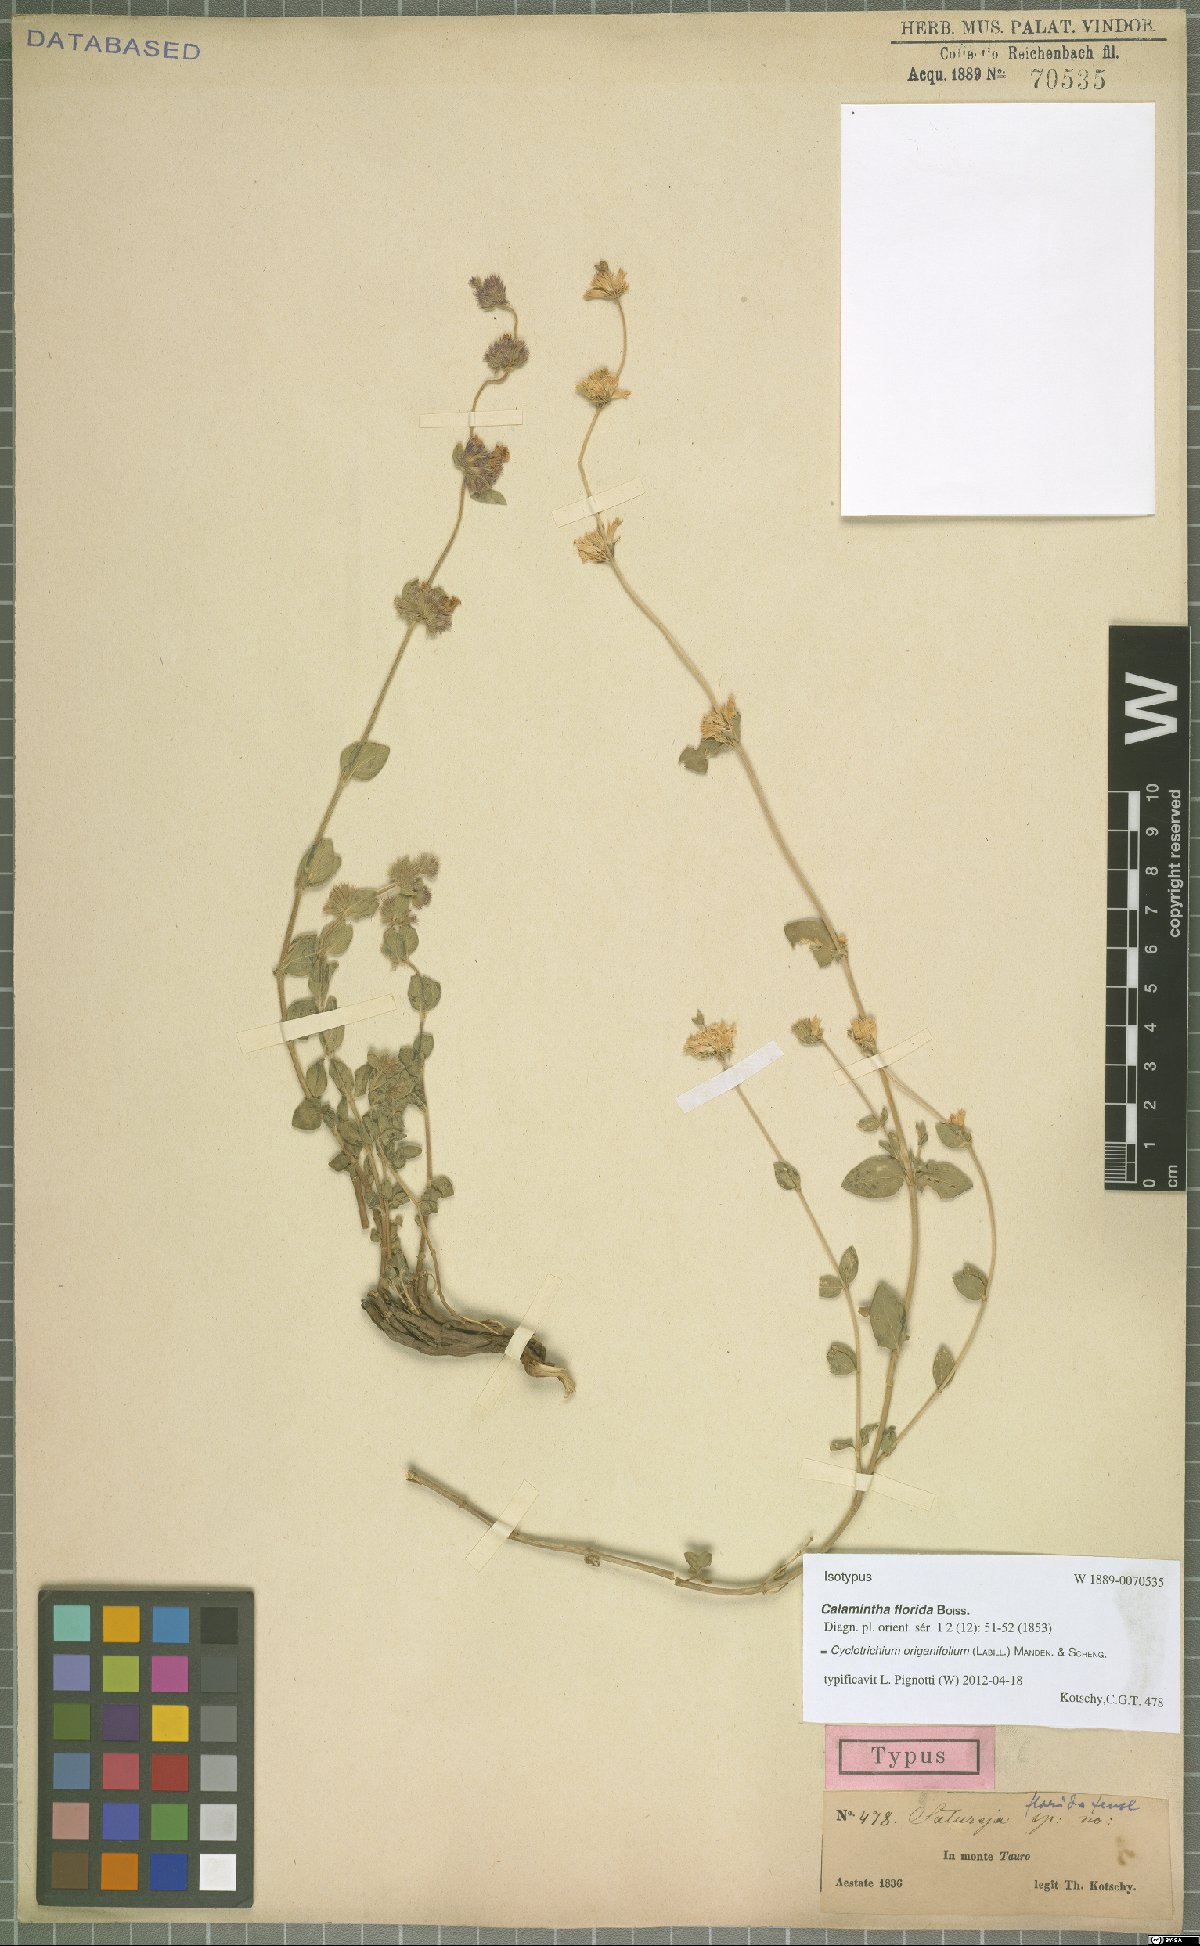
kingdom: Plantae
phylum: Tracheophyta
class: Magnoliopsida
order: Lamiales
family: Lamiaceae
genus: Cyclotrichium
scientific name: Cyclotrichium origanifolium
